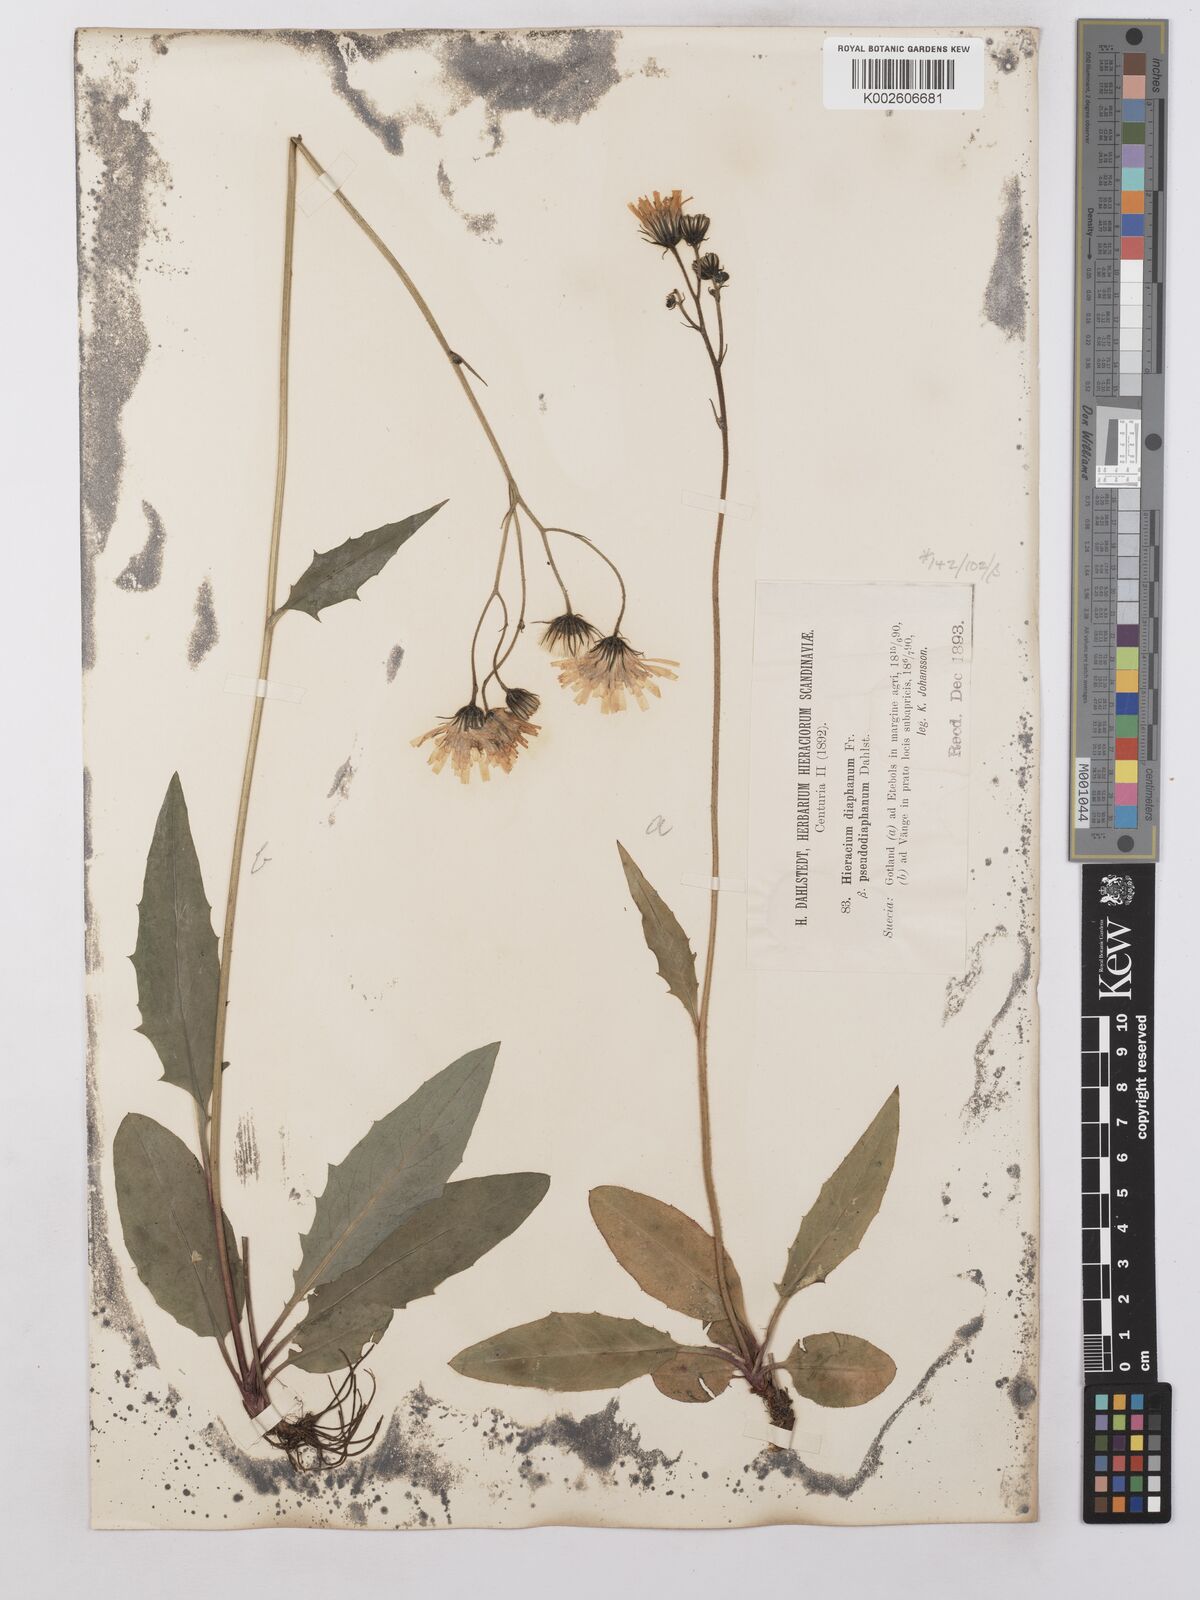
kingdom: Plantae
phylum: Tracheophyta
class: Magnoliopsida
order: Asterales
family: Asteraceae
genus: Hieracium
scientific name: Hieracium lachenalii
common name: Common hawkweed
